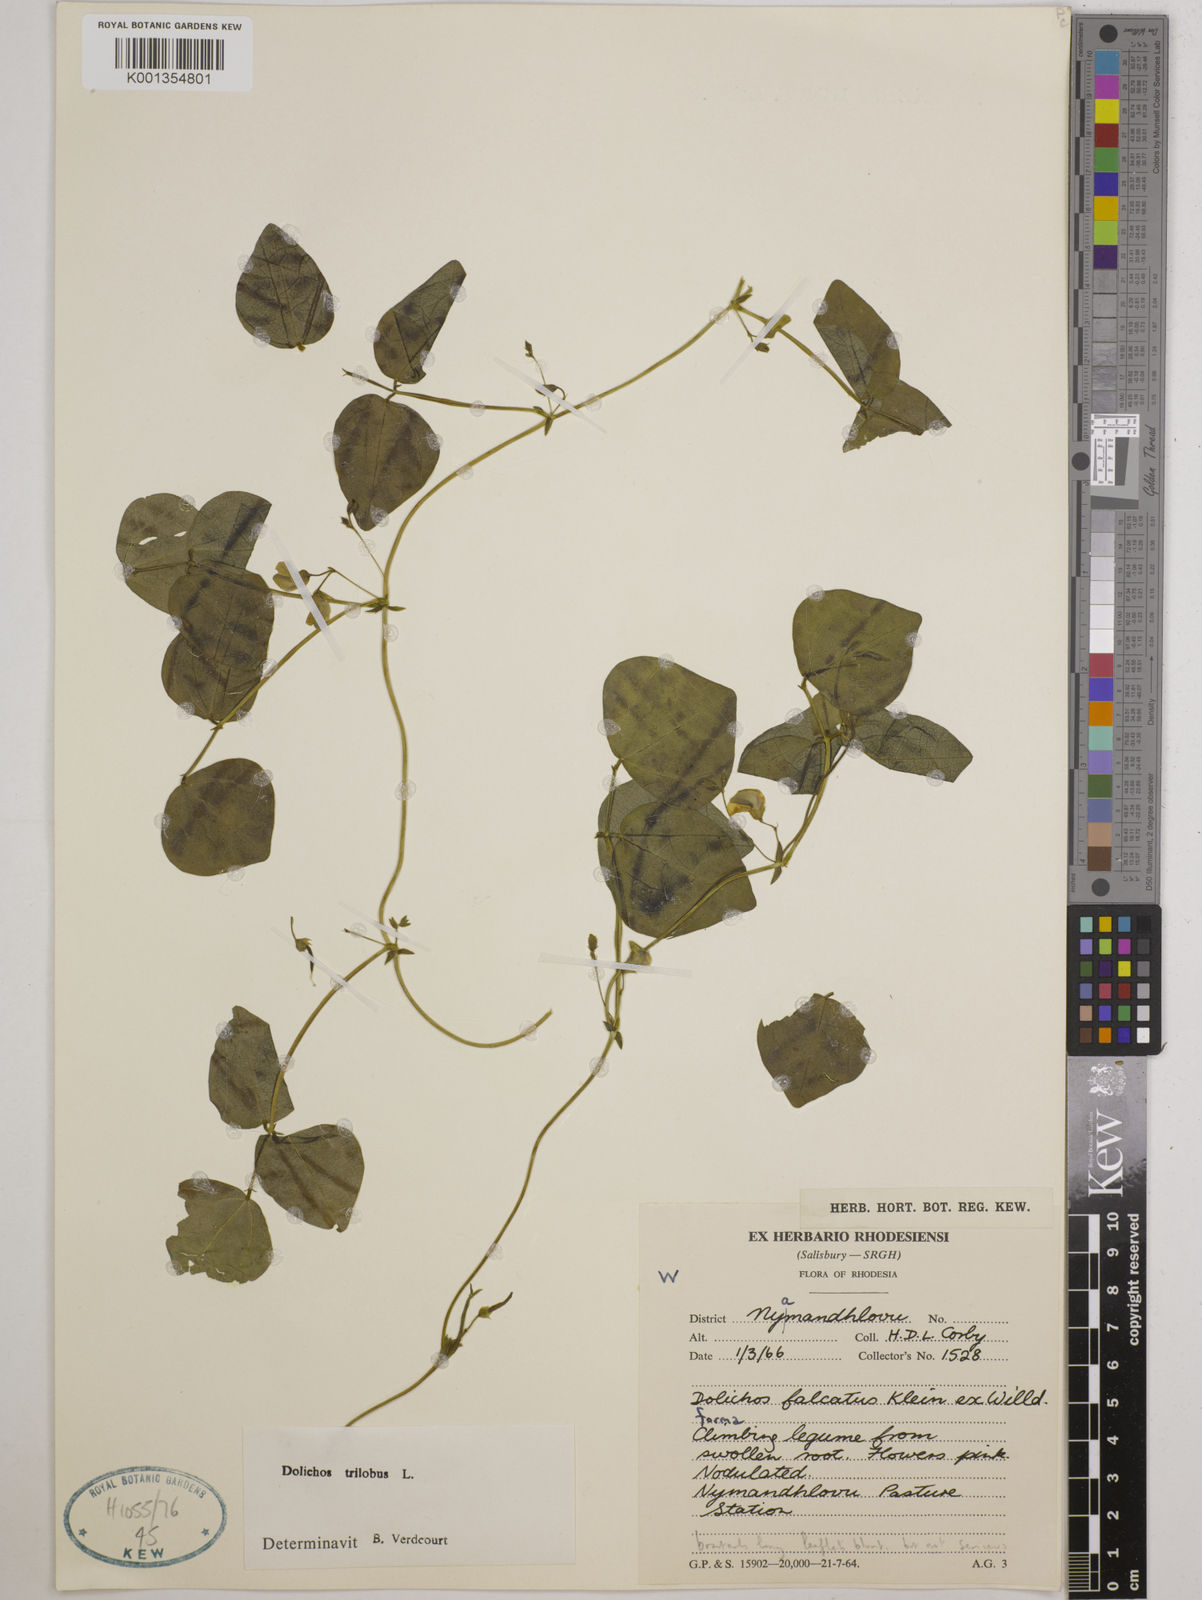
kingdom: Plantae
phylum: Tracheophyta
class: Magnoliopsida
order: Fabales
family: Fabaceae
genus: Dolichos
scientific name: Dolichos
